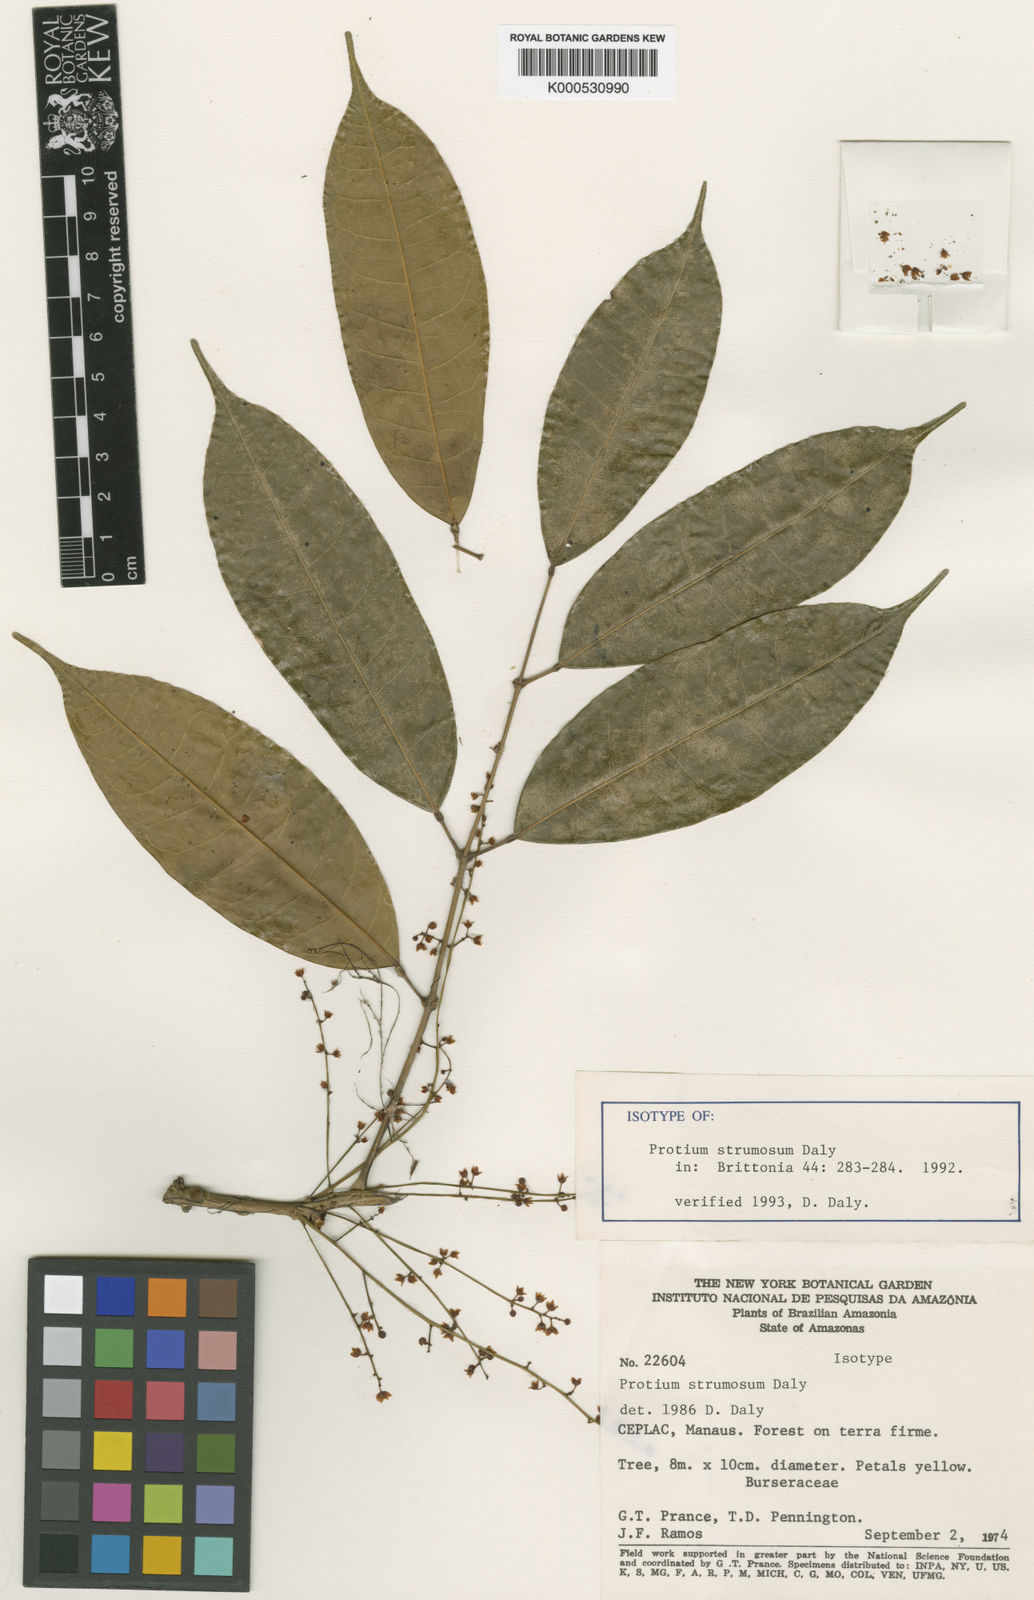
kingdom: Plantae
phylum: Tracheophyta
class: Magnoliopsida
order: Sapindales
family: Burseraceae
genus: Protium
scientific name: Protium strumosum
